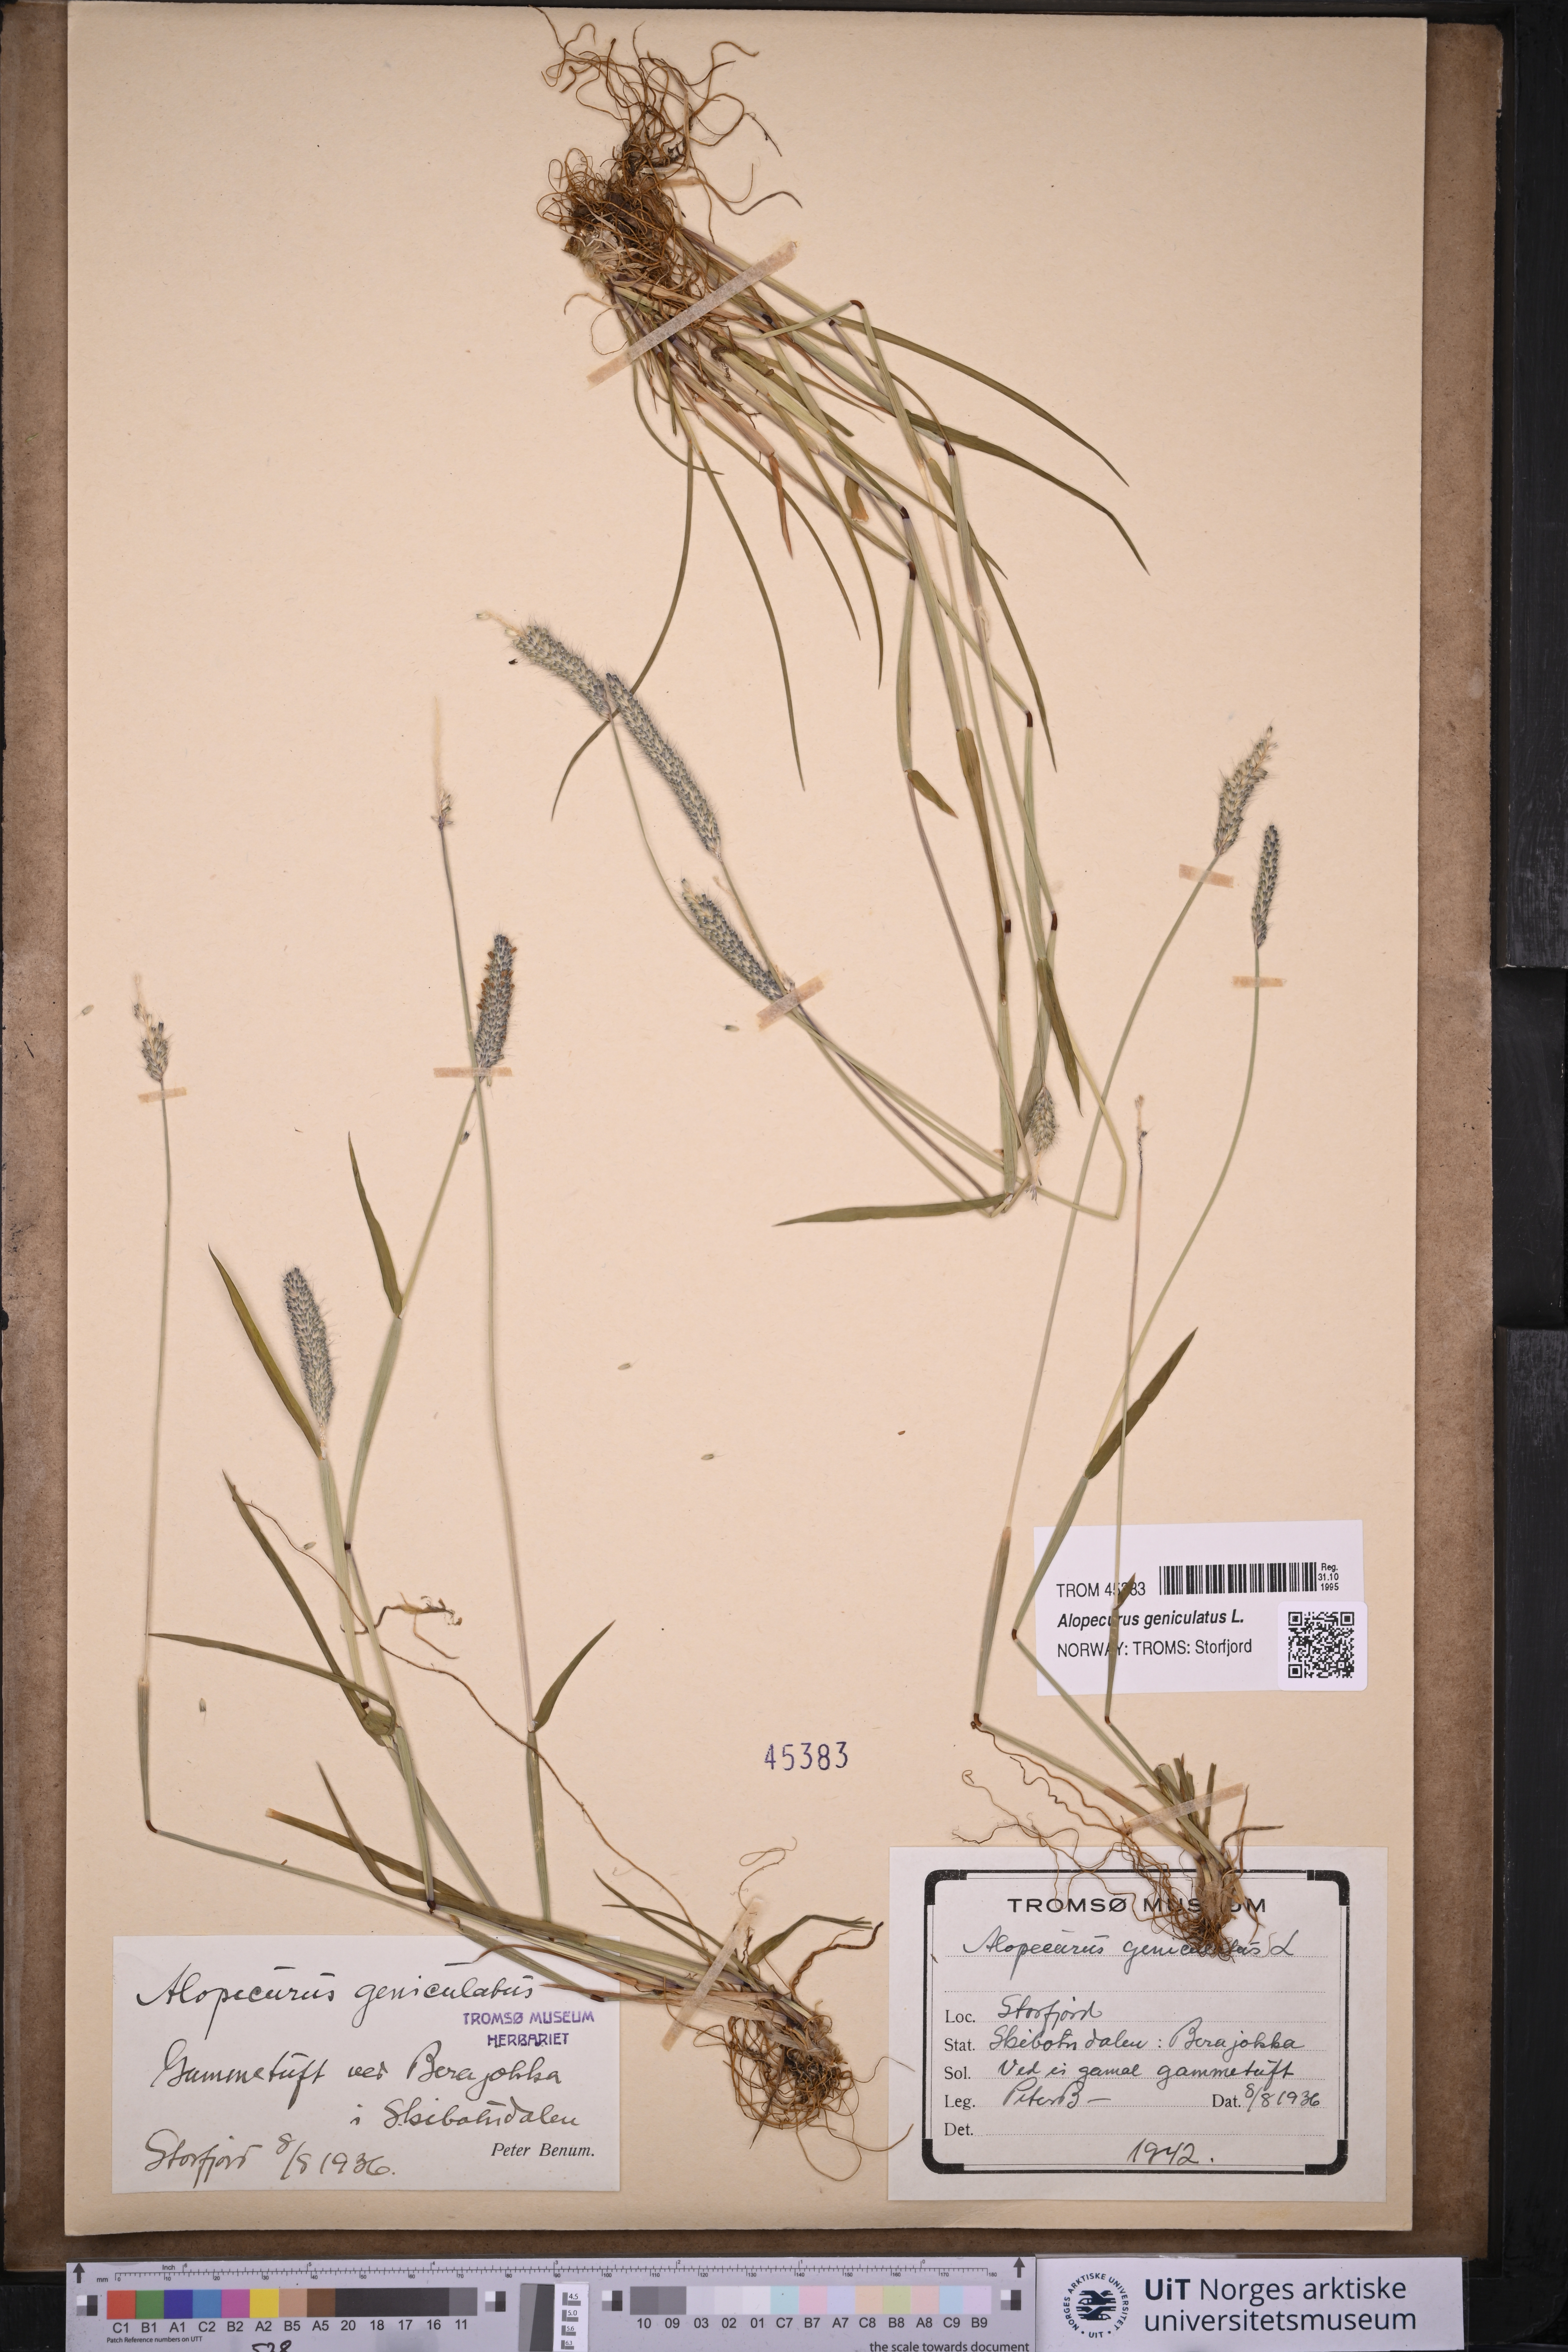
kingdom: Plantae
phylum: Tracheophyta
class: Liliopsida
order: Poales
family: Poaceae
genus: Alopecurus
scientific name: Alopecurus geniculatus
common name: Water foxtail
